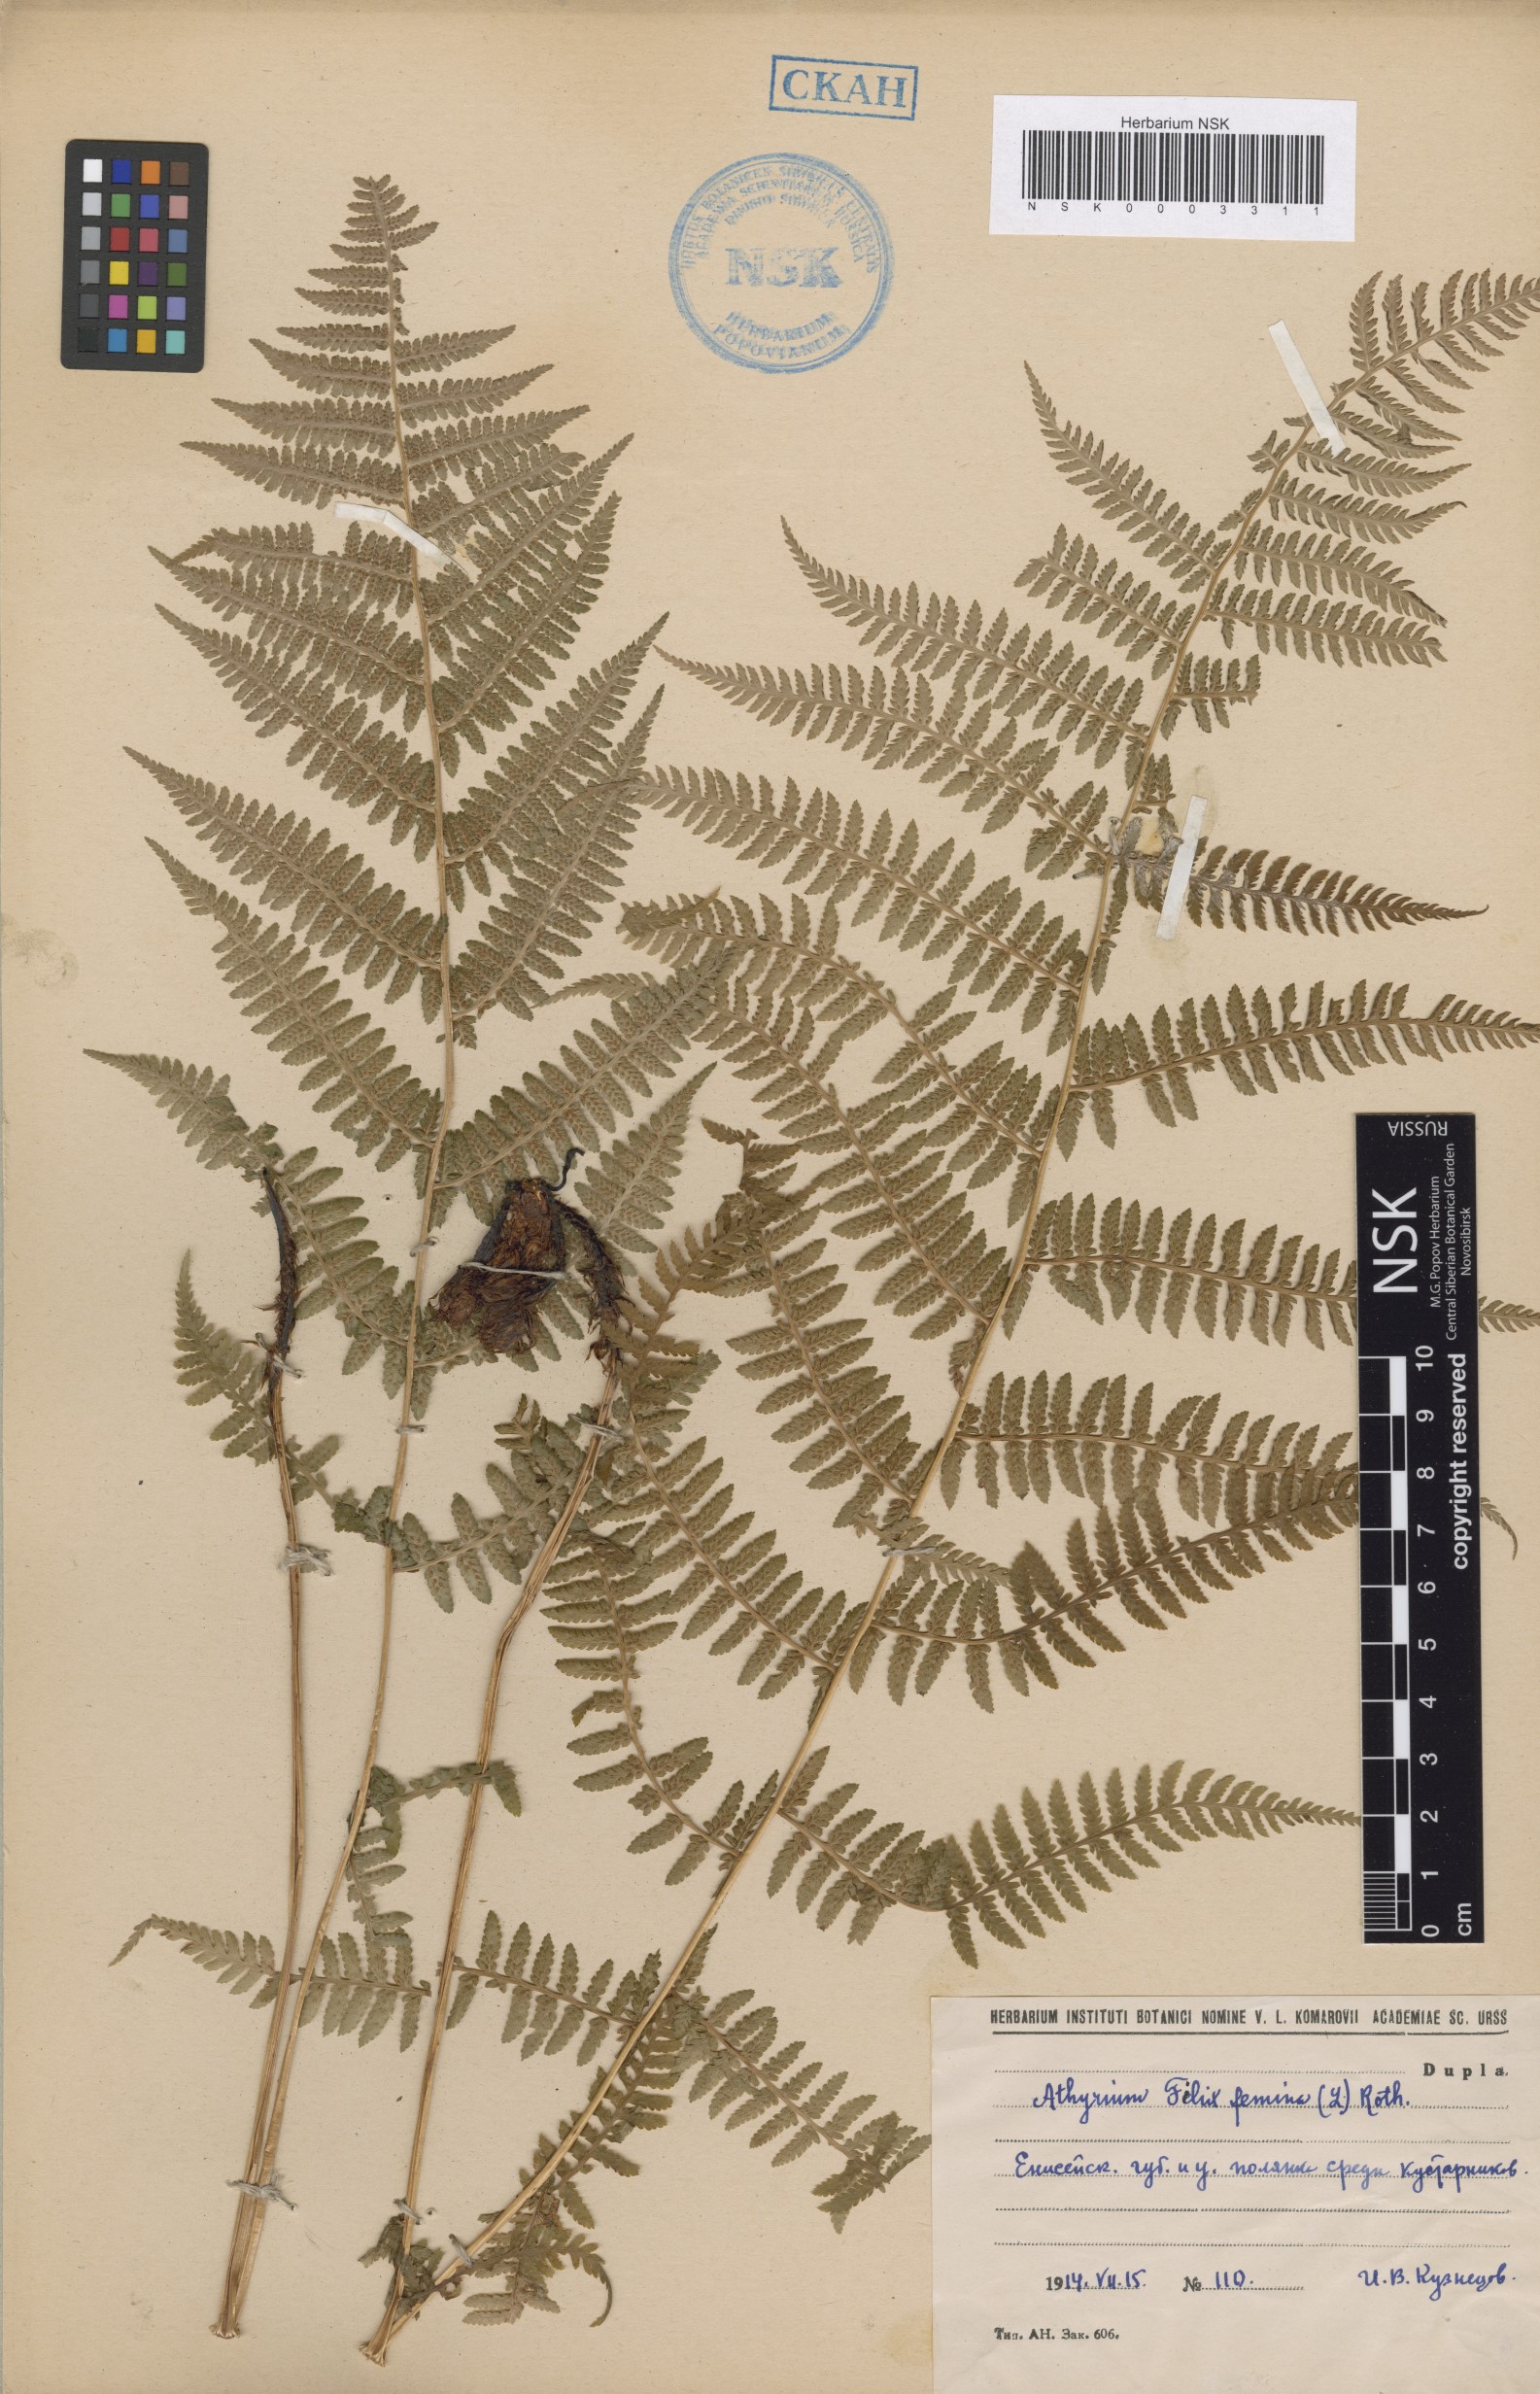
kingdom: Plantae
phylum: Tracheophyta
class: Polypodiopsida
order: Polypodiales
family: Athyriaceae
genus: Athyrium
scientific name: Athyrium filix-femina
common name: Lady fern
